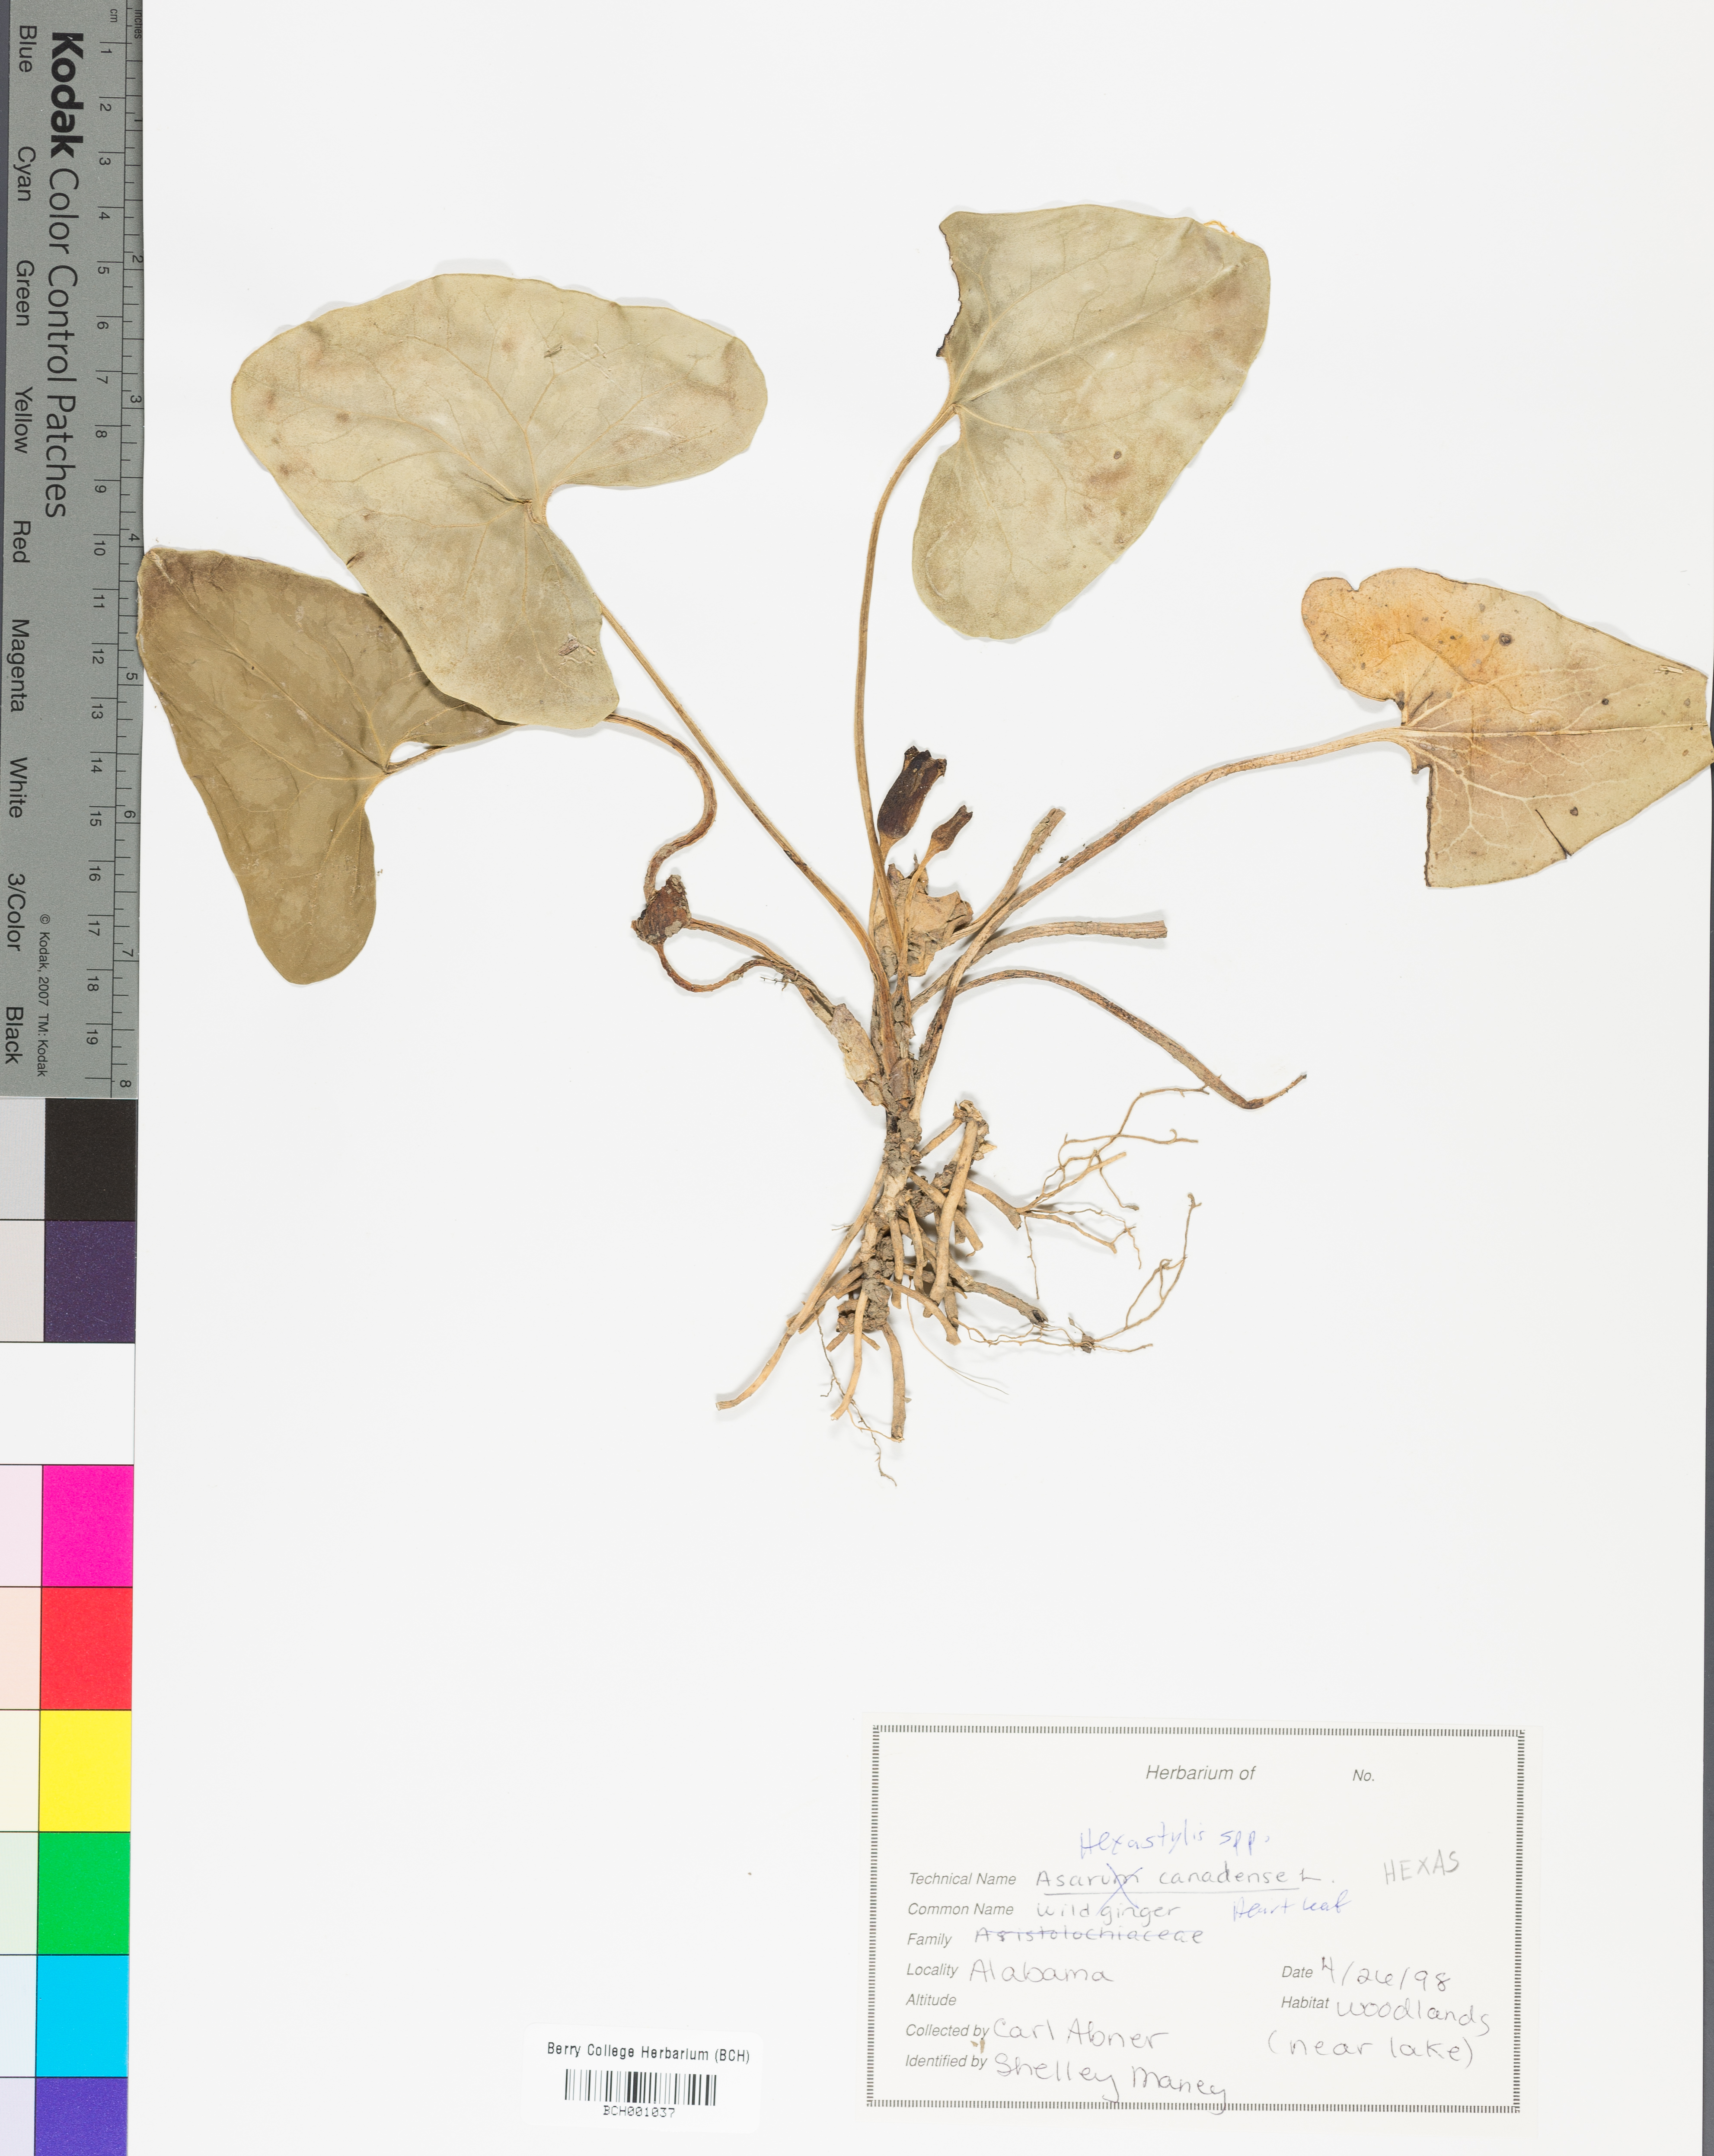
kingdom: Plantae
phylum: Tracheophyta
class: Magnoliopsida
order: Piperales
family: Aristolochiaceae
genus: Hexastylis
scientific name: Hexastylis
